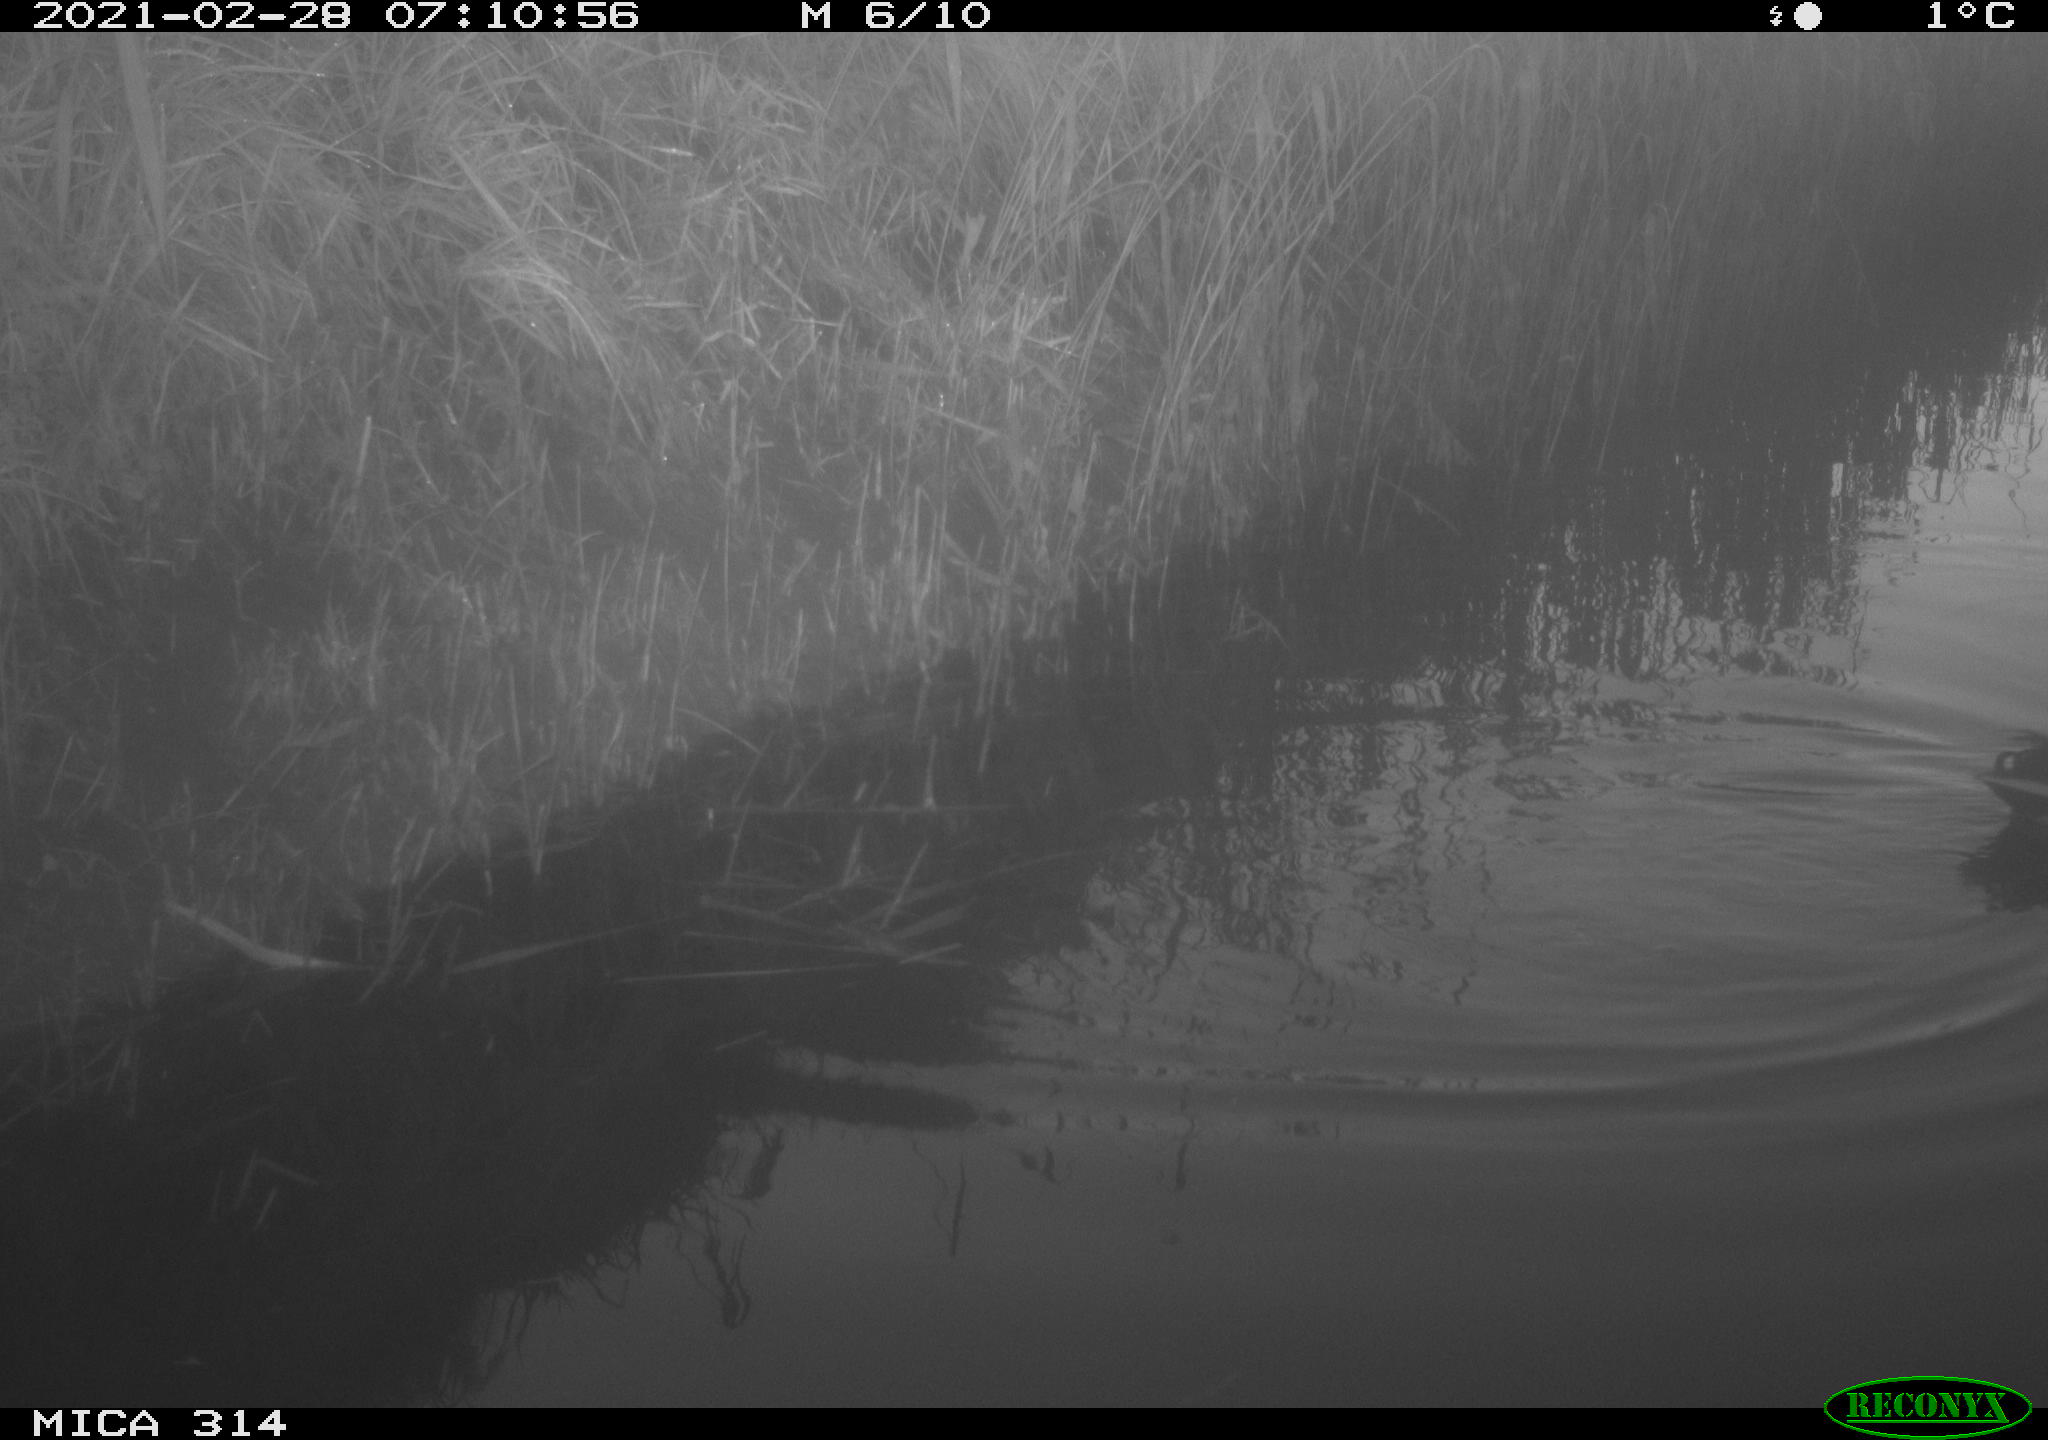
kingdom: Animalia
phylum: Chordata
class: Aves
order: Anseriformes
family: Anatidae
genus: Anas
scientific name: Anas platyrhynchos
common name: Mallard
